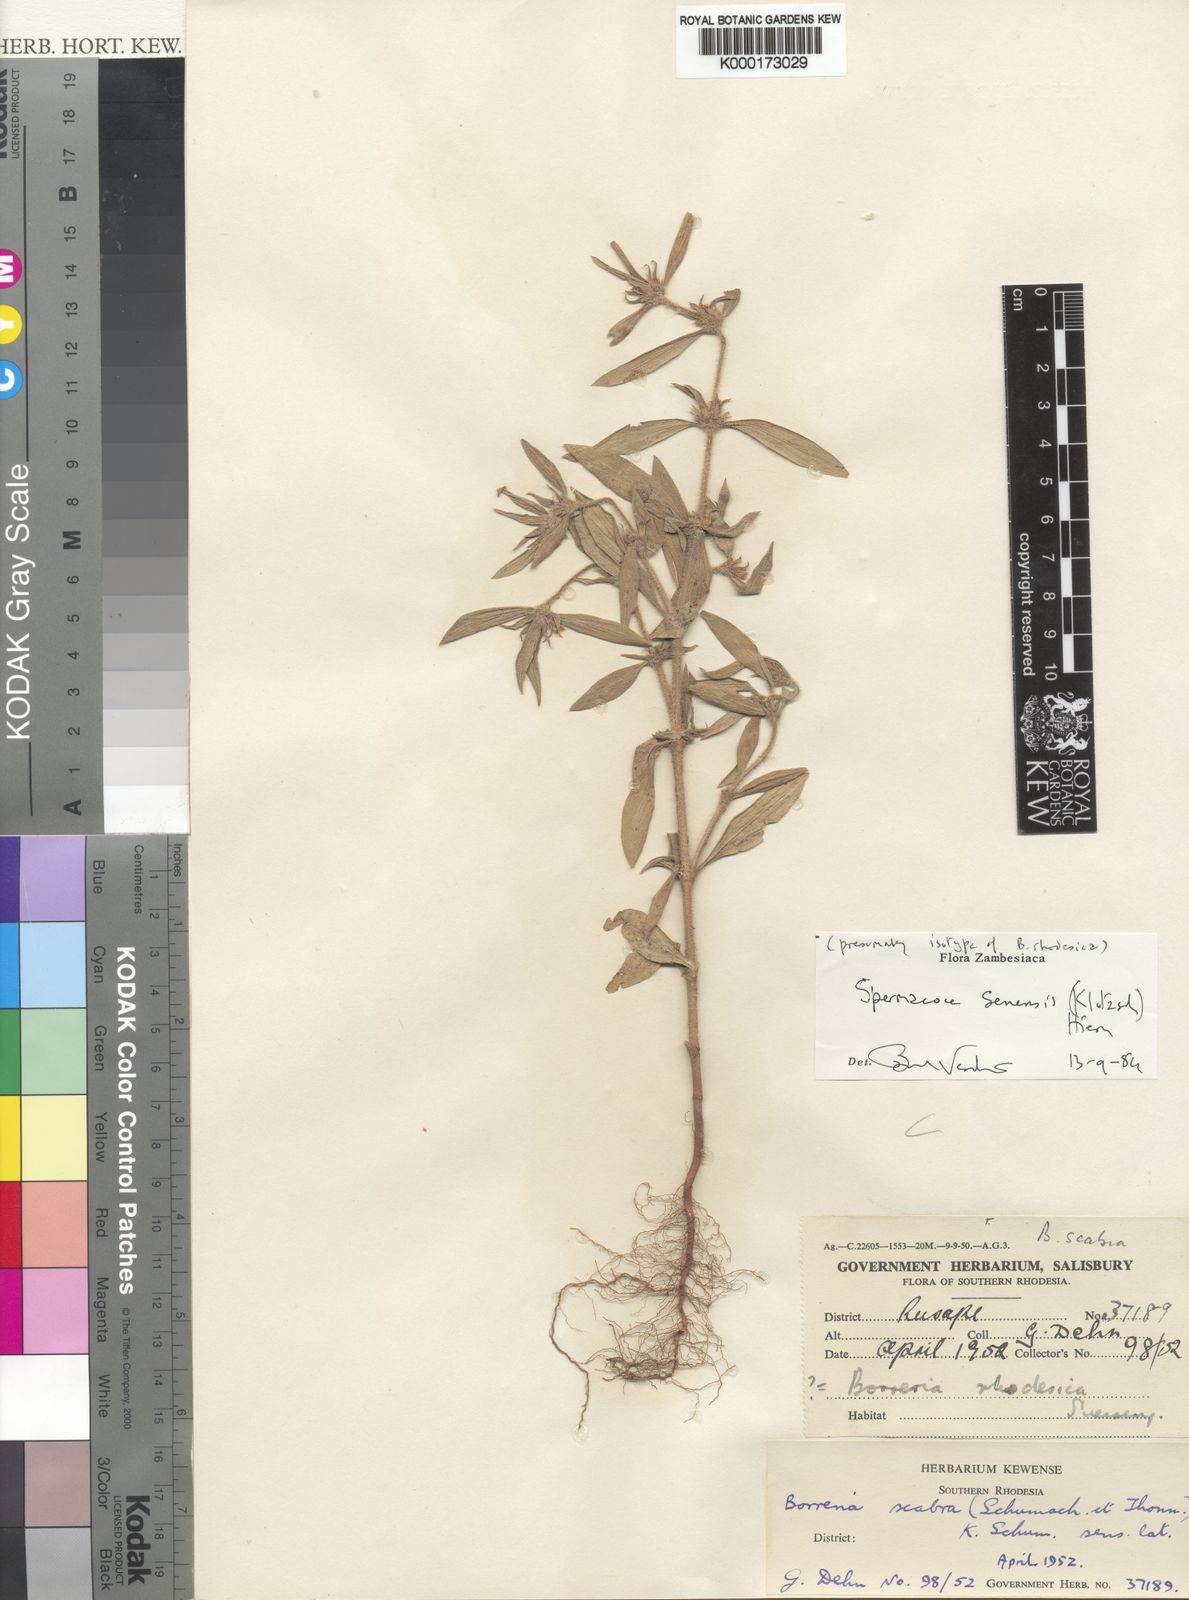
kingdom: Plantae
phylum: Tracheophyta
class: Magnoliopsida
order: Gentianales
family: Rubiaceae
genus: Spermacoce
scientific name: Spermacoce senensis
